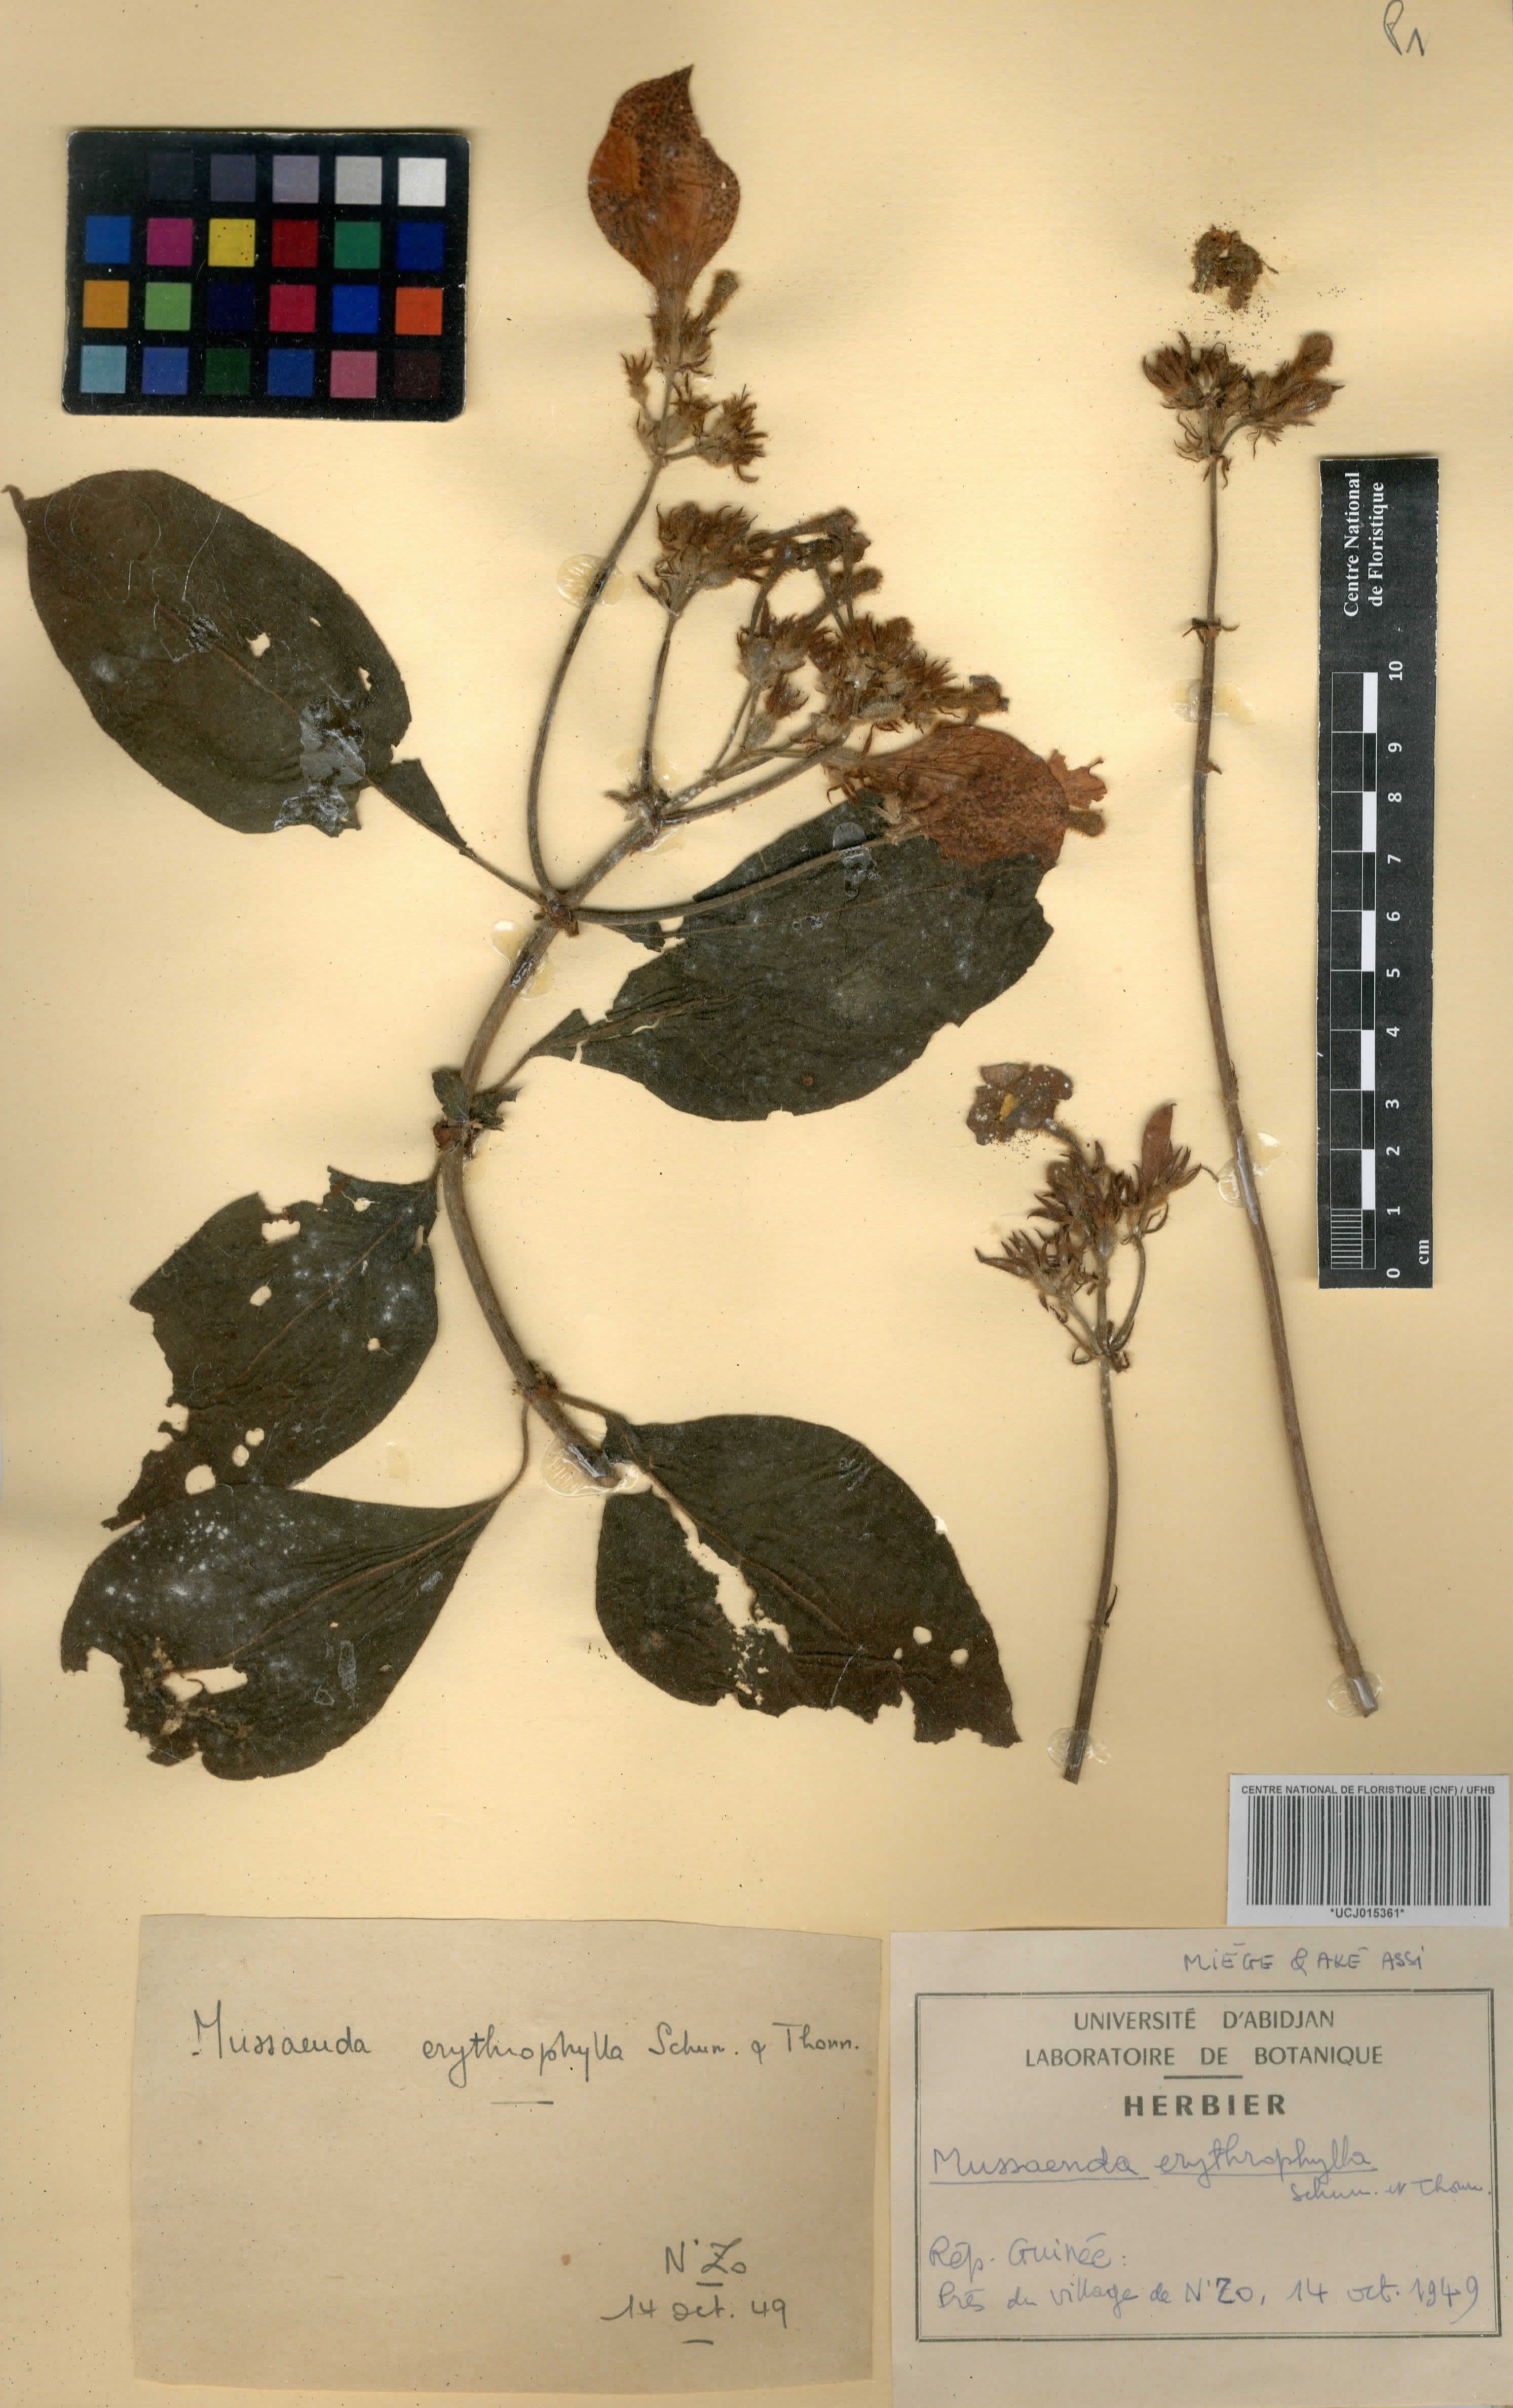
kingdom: Plantae
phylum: Tracheophyta
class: Magnoliopsida
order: Gentianales
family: Rubiaceae
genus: Mussaenda
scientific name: Mussaenda erythrophylla
